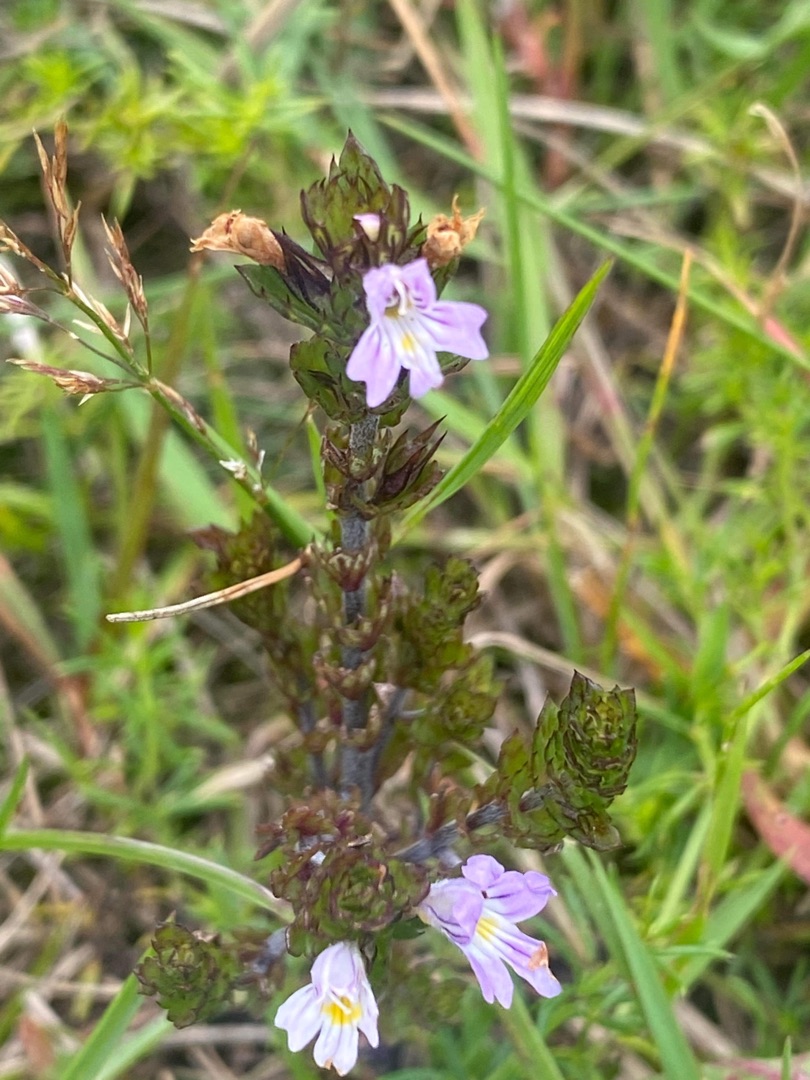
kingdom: Plantae
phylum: Tracheophyta
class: Magnoliopsida
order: Lamiales
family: Orobanchaceae
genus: Euphrasia
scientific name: Euphrasia stricta
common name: Spids øjentrøst
